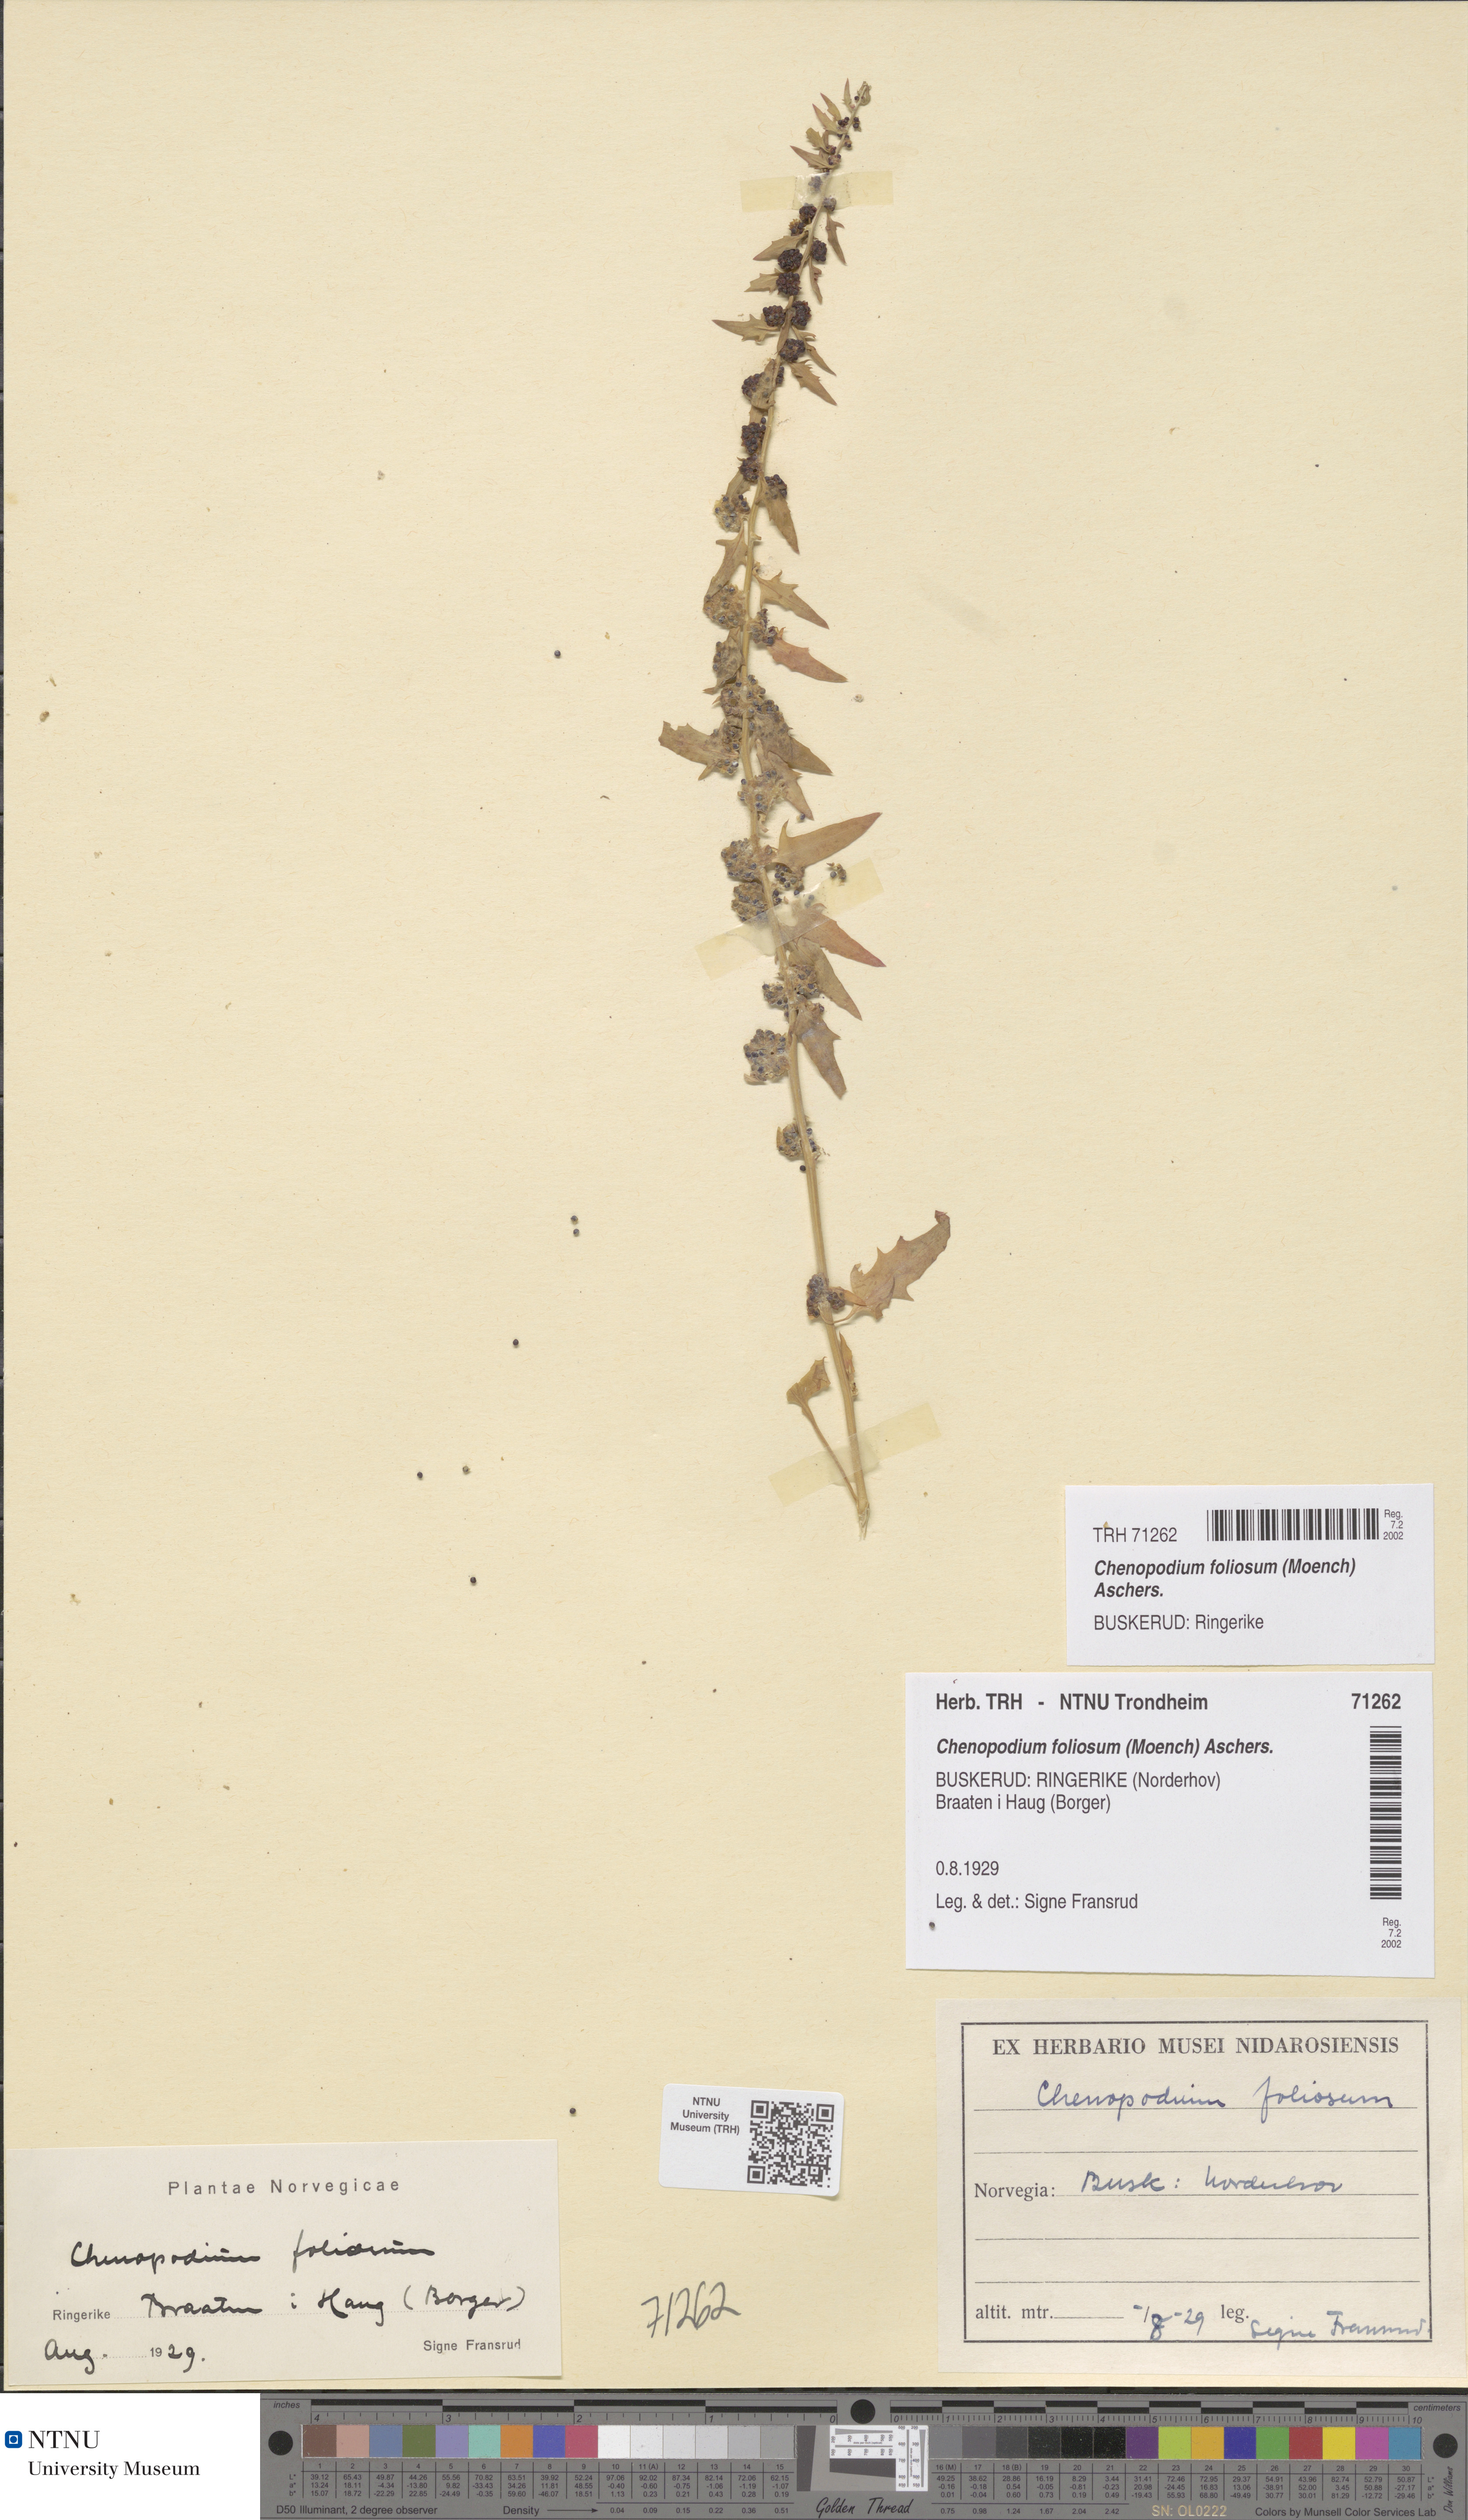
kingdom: Plantae
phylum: Tracheophyta
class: Magnoliopsida
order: Caryophyllales
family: Amaranthaceae
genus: Blitum
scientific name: Blitum virgatum
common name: Strawberry goosefoot
